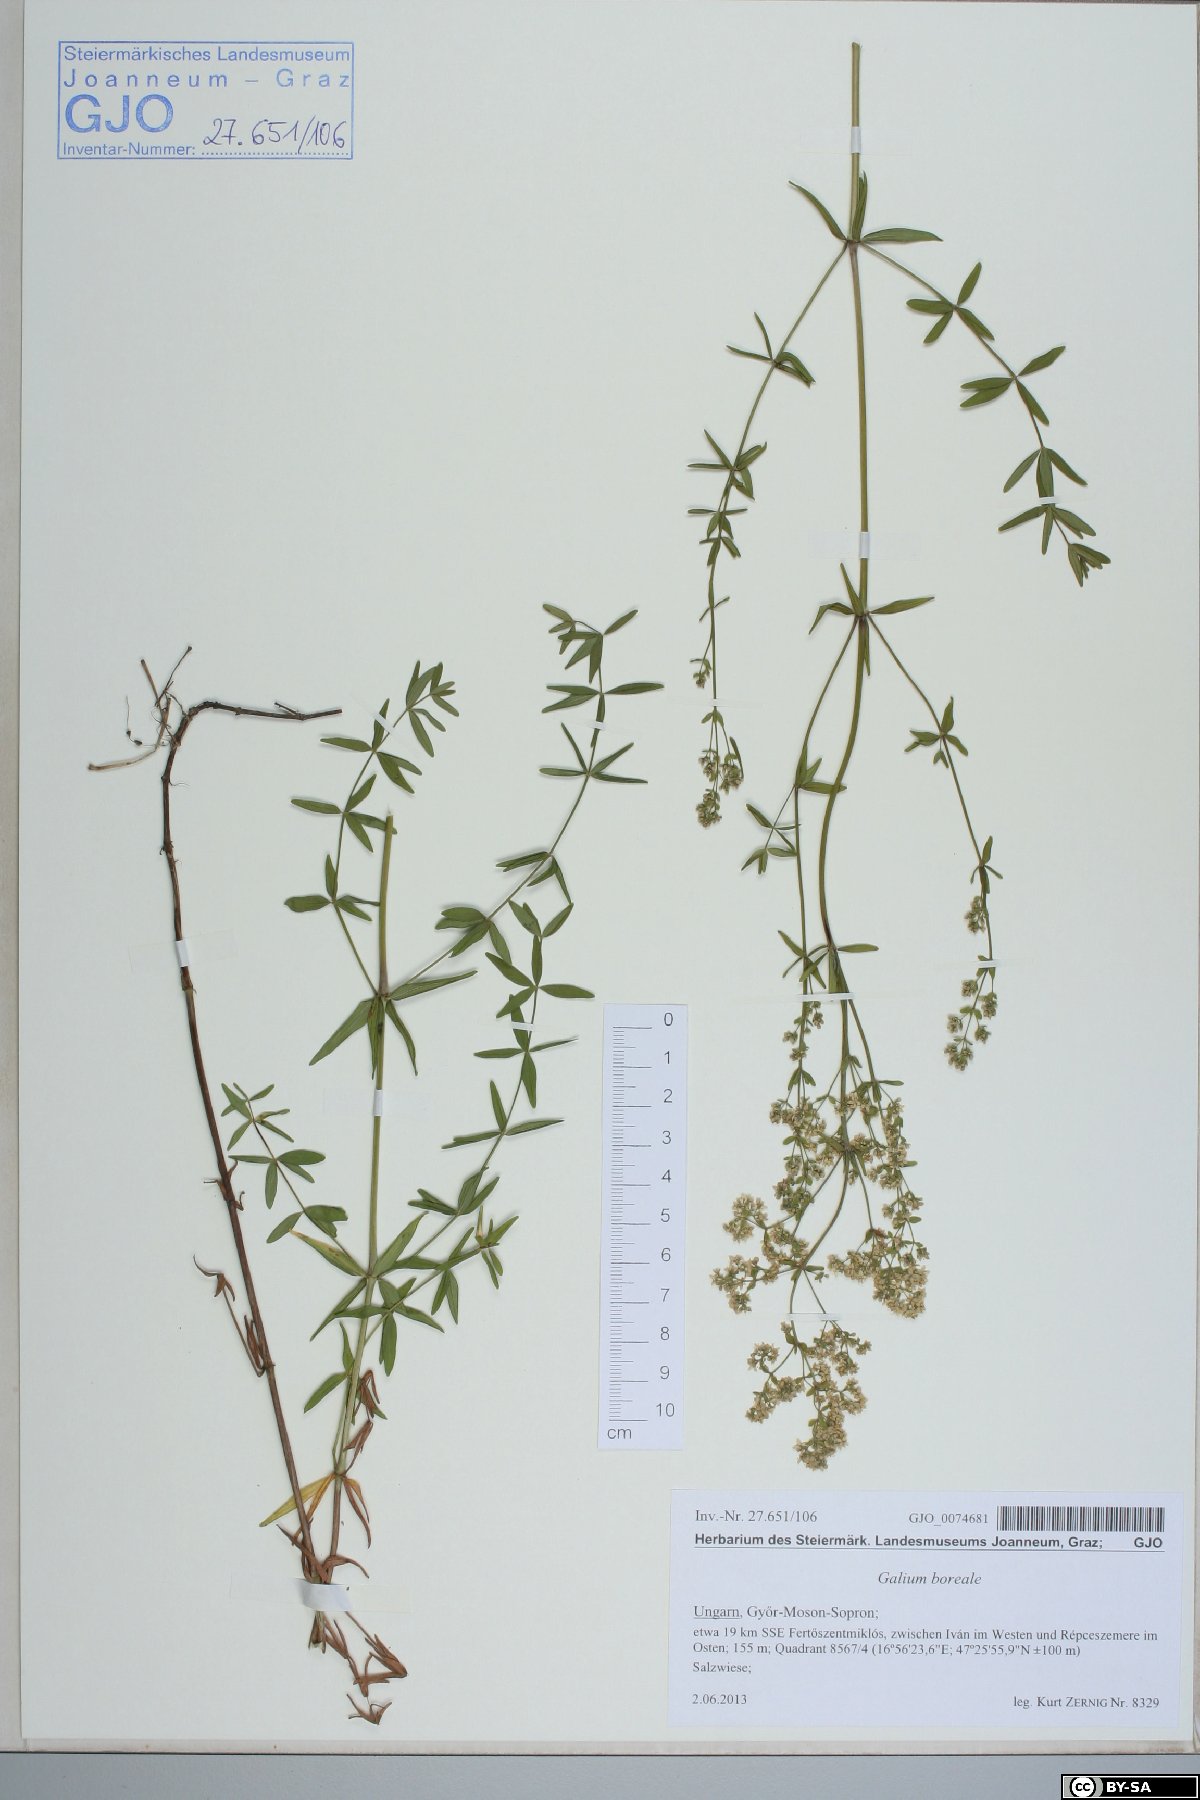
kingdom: Plantae
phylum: Tracheophyta
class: Magnoliopsida
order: Gentianales
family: Rubiaceae
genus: Galium
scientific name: Galium boreale
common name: Northern bedstraw
